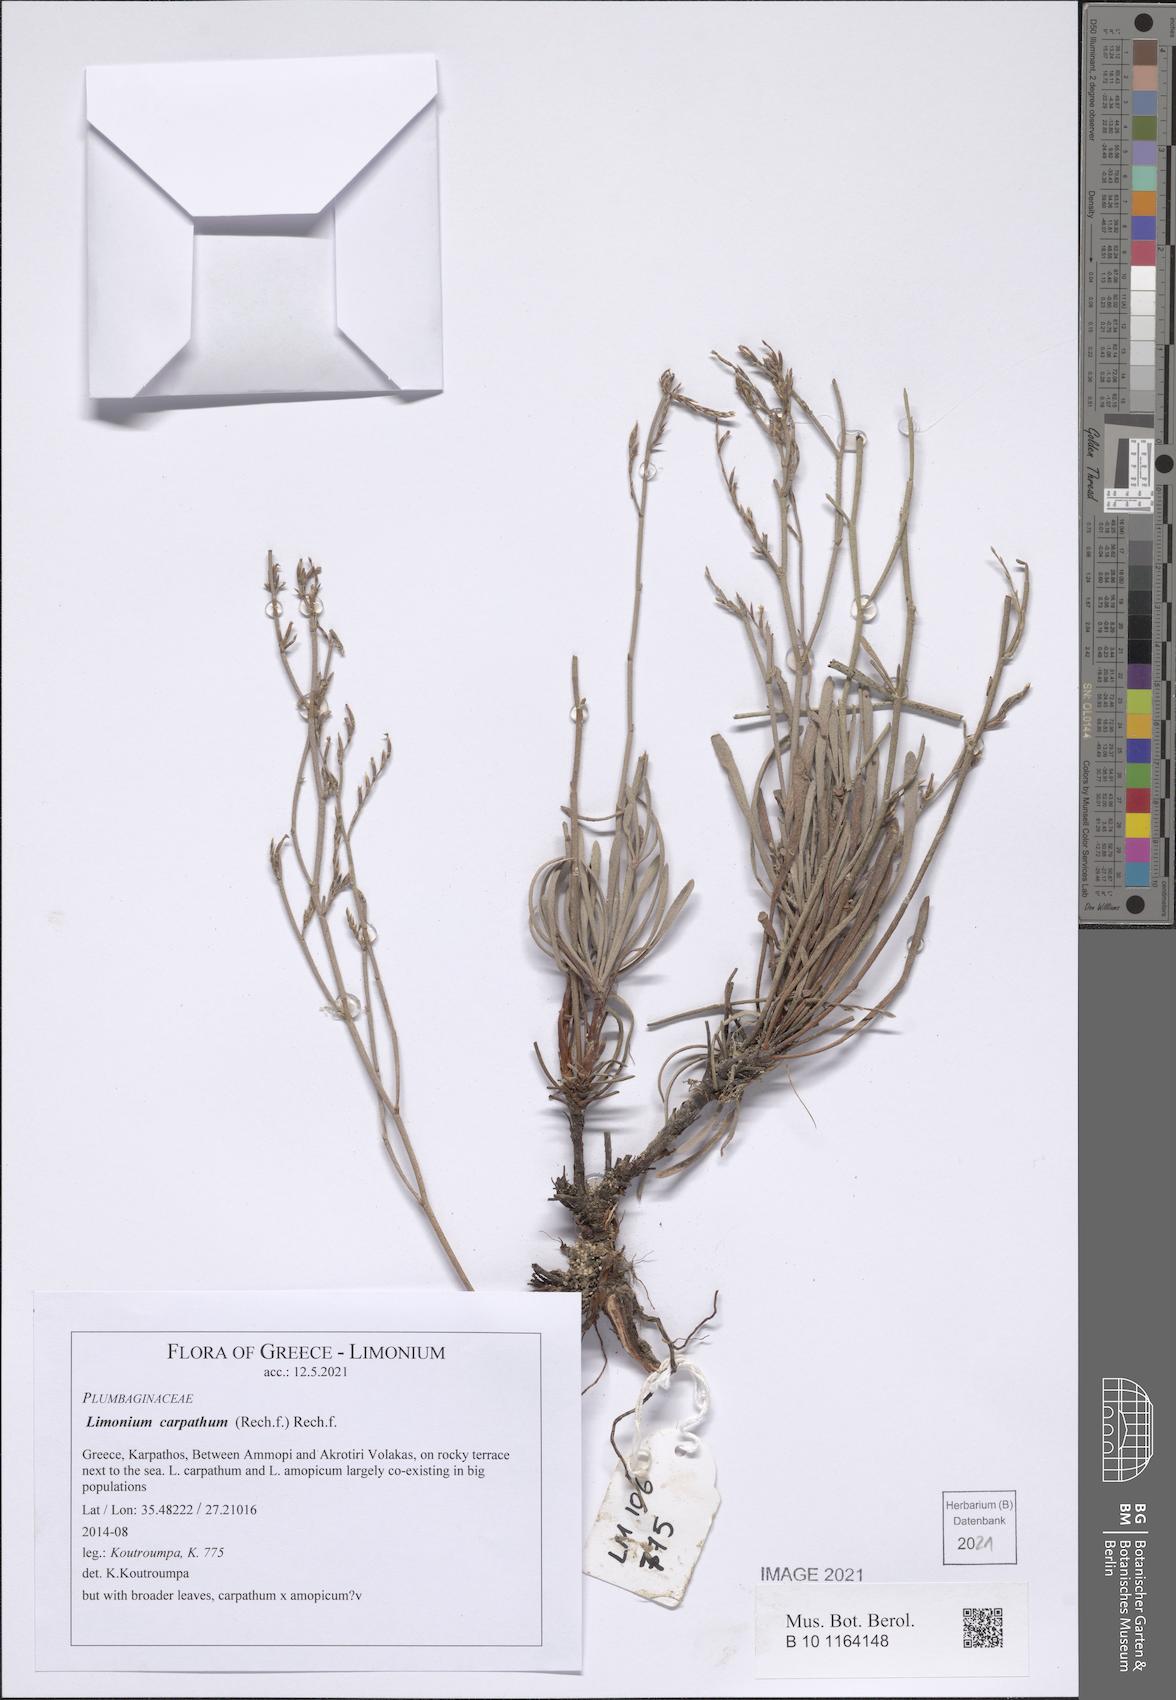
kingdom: Plantae
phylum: Tracheophyta
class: Magnoliopsida
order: Caryophyllales
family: Plumbaginaceae
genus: Limonium
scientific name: Limonium carpathum
